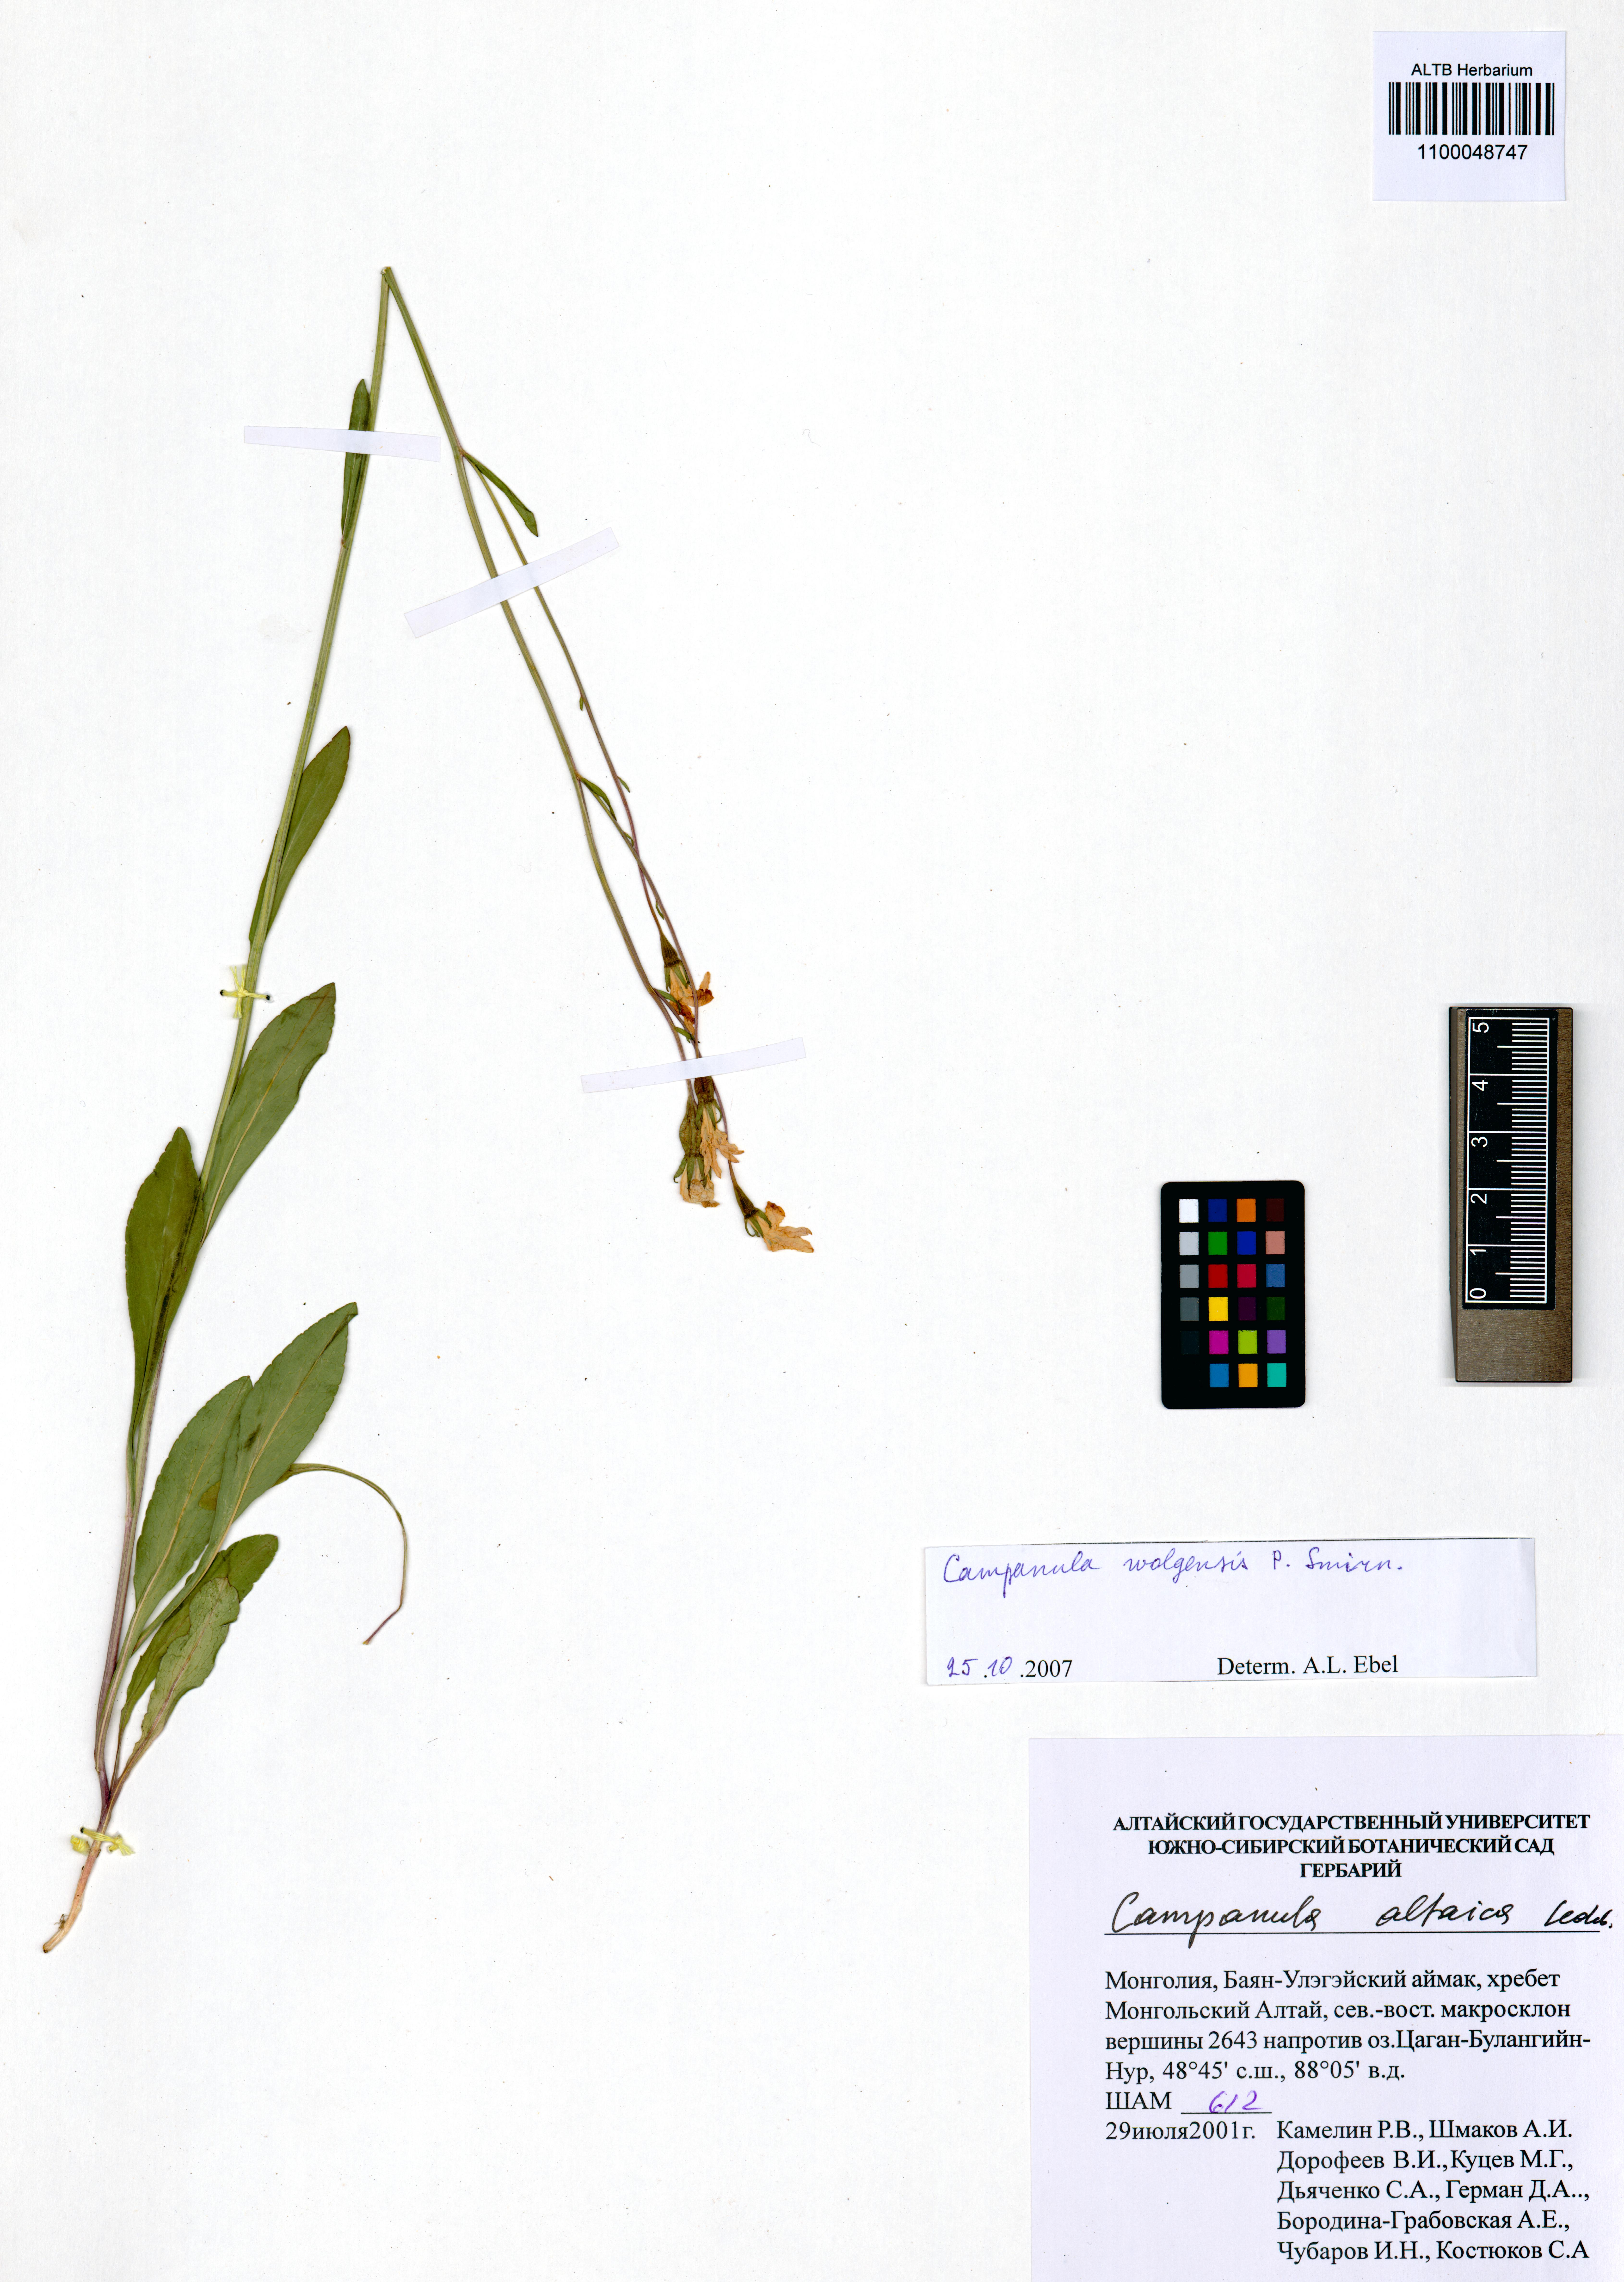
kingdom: Plantae
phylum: Tracheophyta
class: Magnoliopsida
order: Asterales
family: Campanulaceae
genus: Campanula
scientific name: Campanula stevenii
